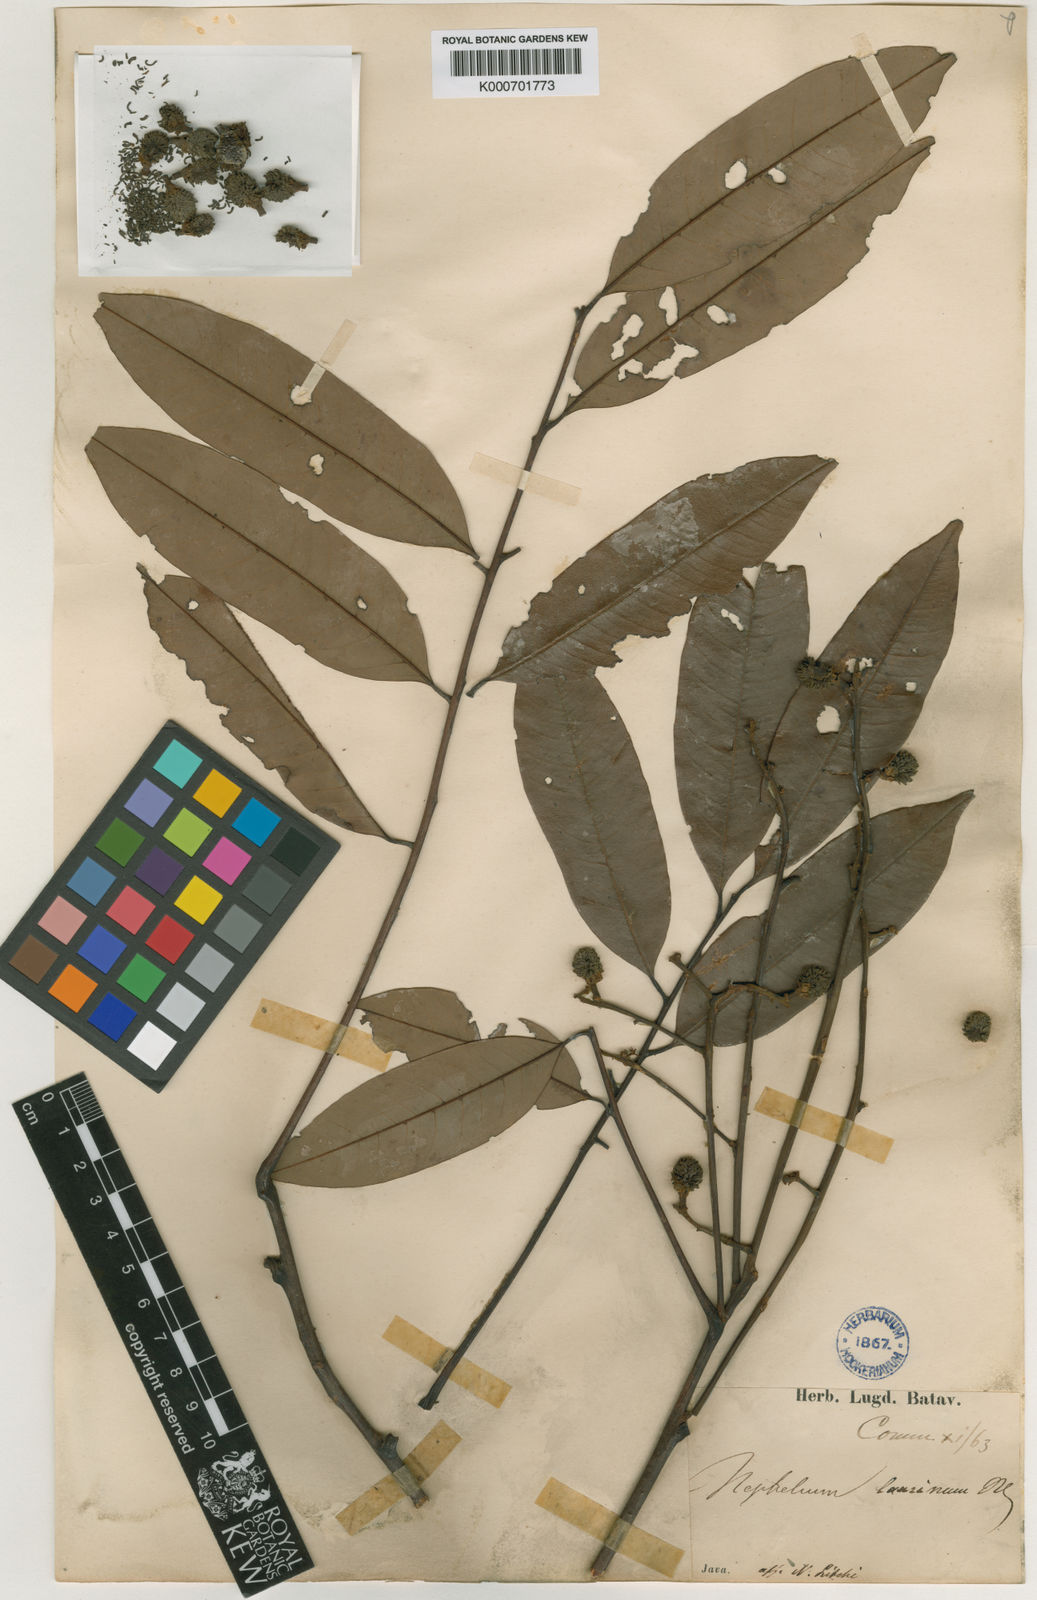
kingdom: Plantae
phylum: Tracheophyta
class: Magnoliopsida
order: Sapindales
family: Sapindaceae
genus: Nephelium
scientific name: Nephelium laurinum
